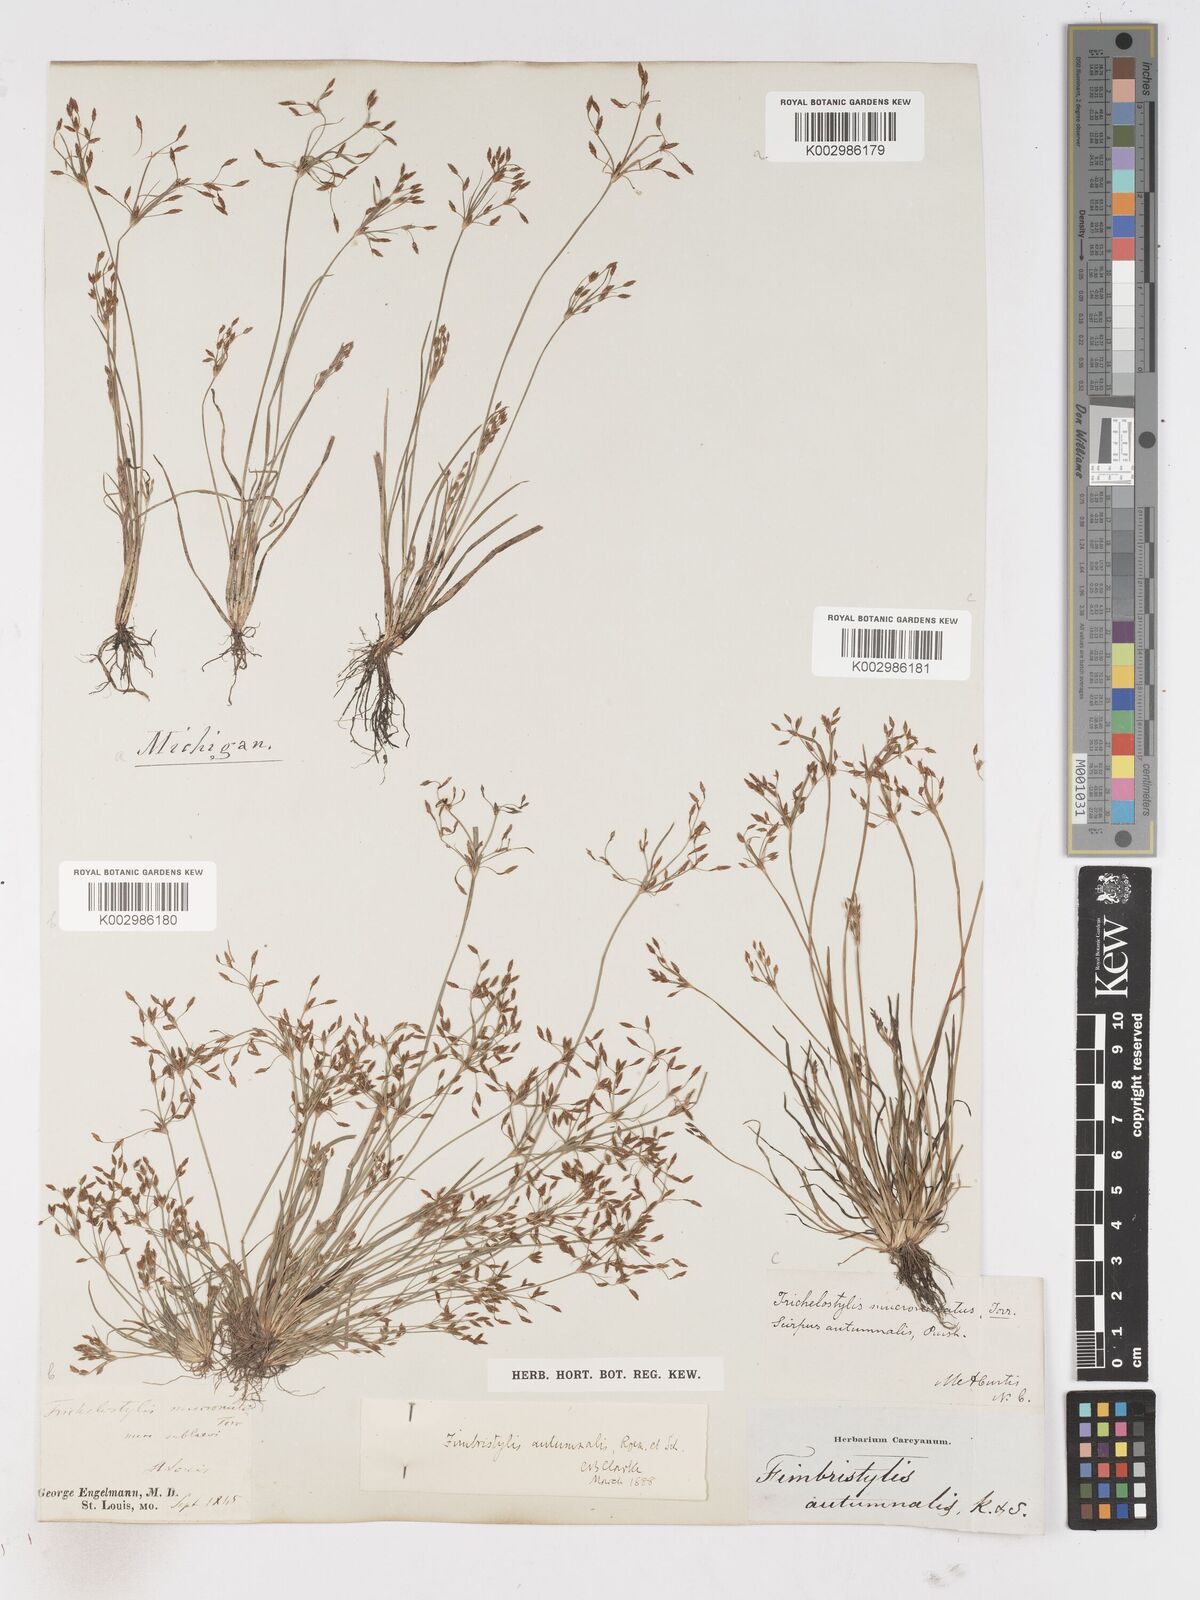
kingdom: Plantae
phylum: Tracheophyta
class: Liliopsida
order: Poales
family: Cyperaceae
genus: Fimbristylis
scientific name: Fimbristylis autumnalis
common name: Slender fimbristylis
